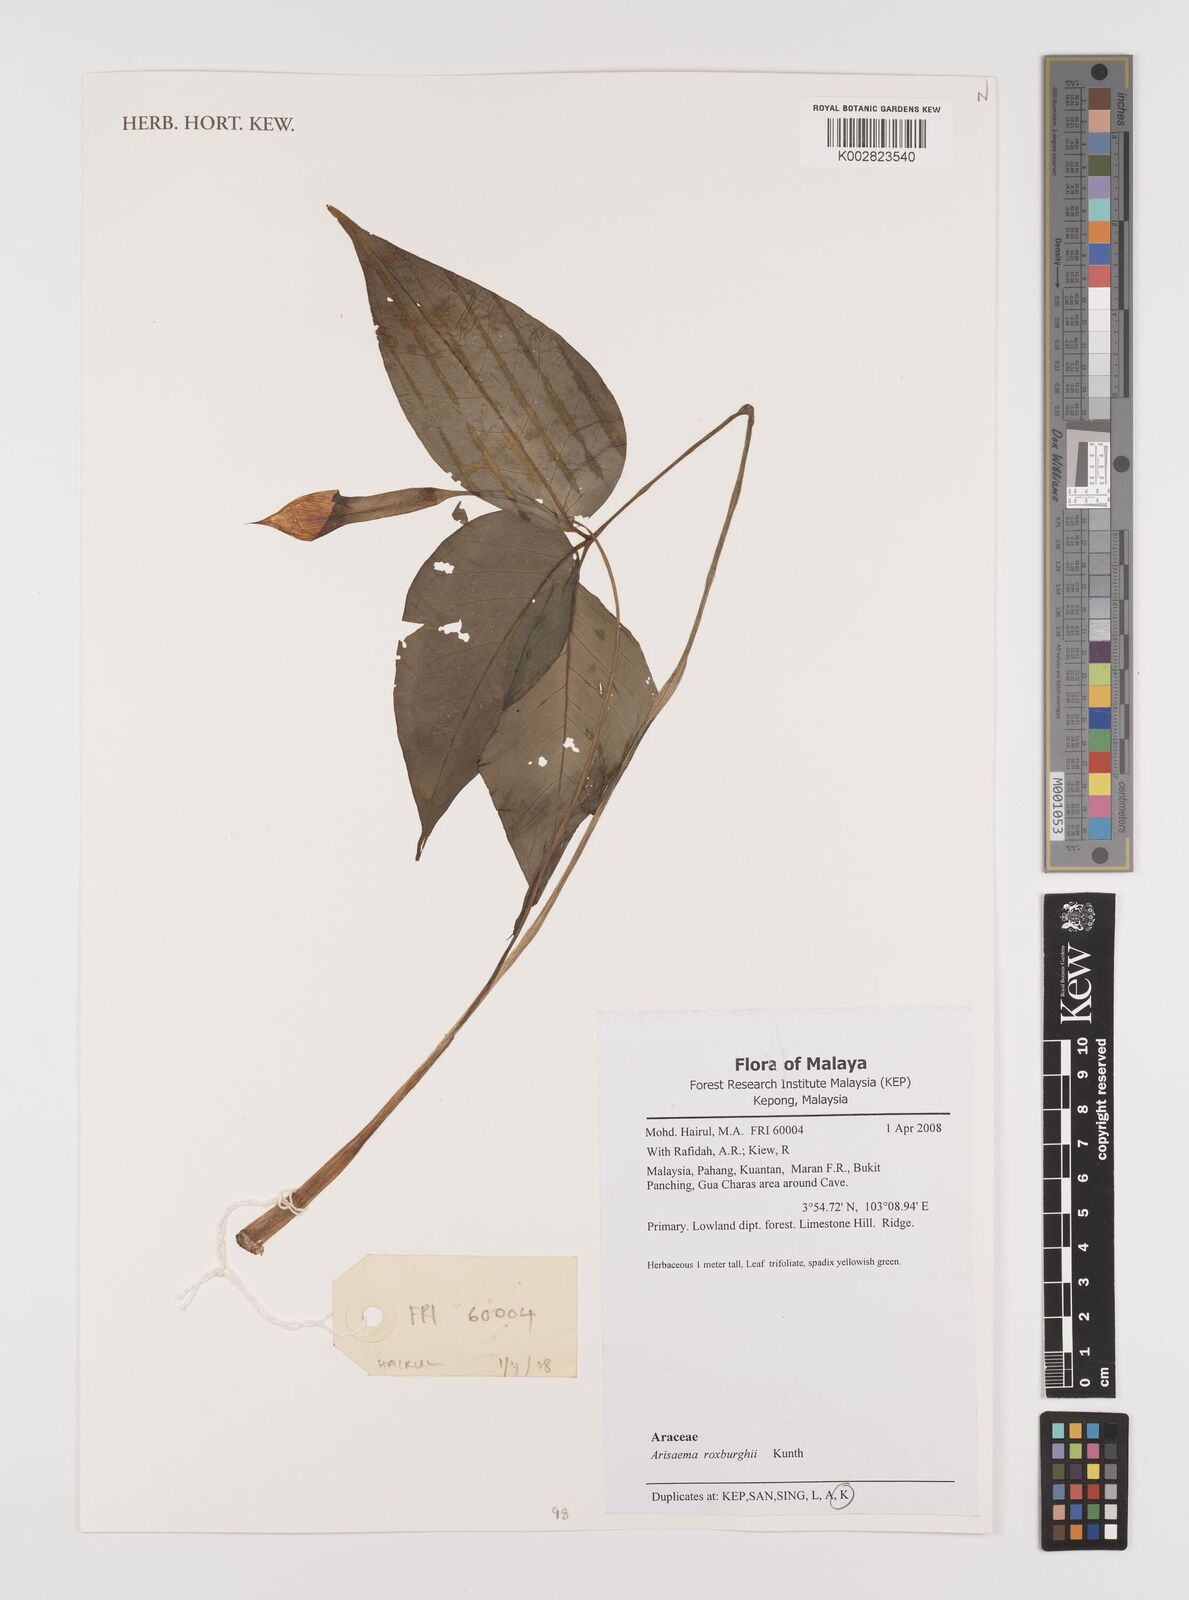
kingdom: Plantae
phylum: Tracheophyta
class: Liliopsida
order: Alismatales
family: Araceae
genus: Arisaema
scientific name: Arisaema roxburghii
